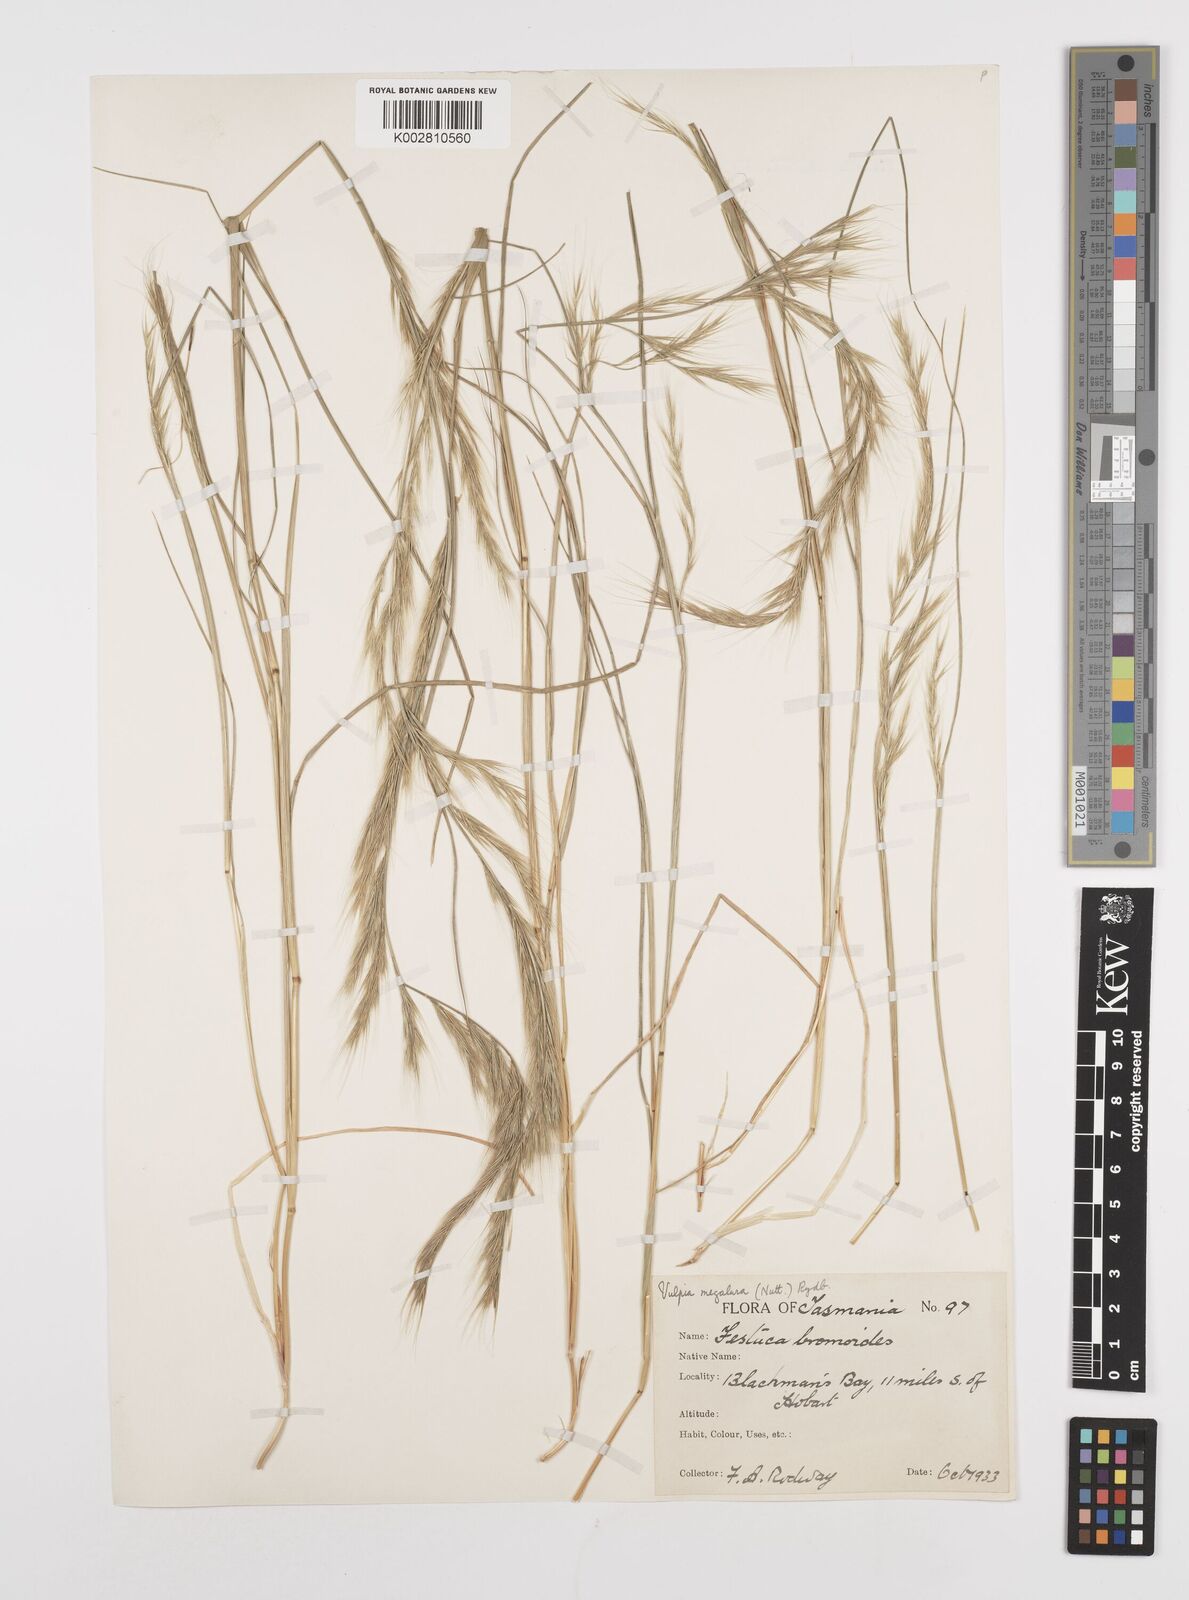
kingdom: Plantae
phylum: Tracheophyta
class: Liliopsida
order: Poales
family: Poaceae
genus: Festuca
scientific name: Festuca myuros
